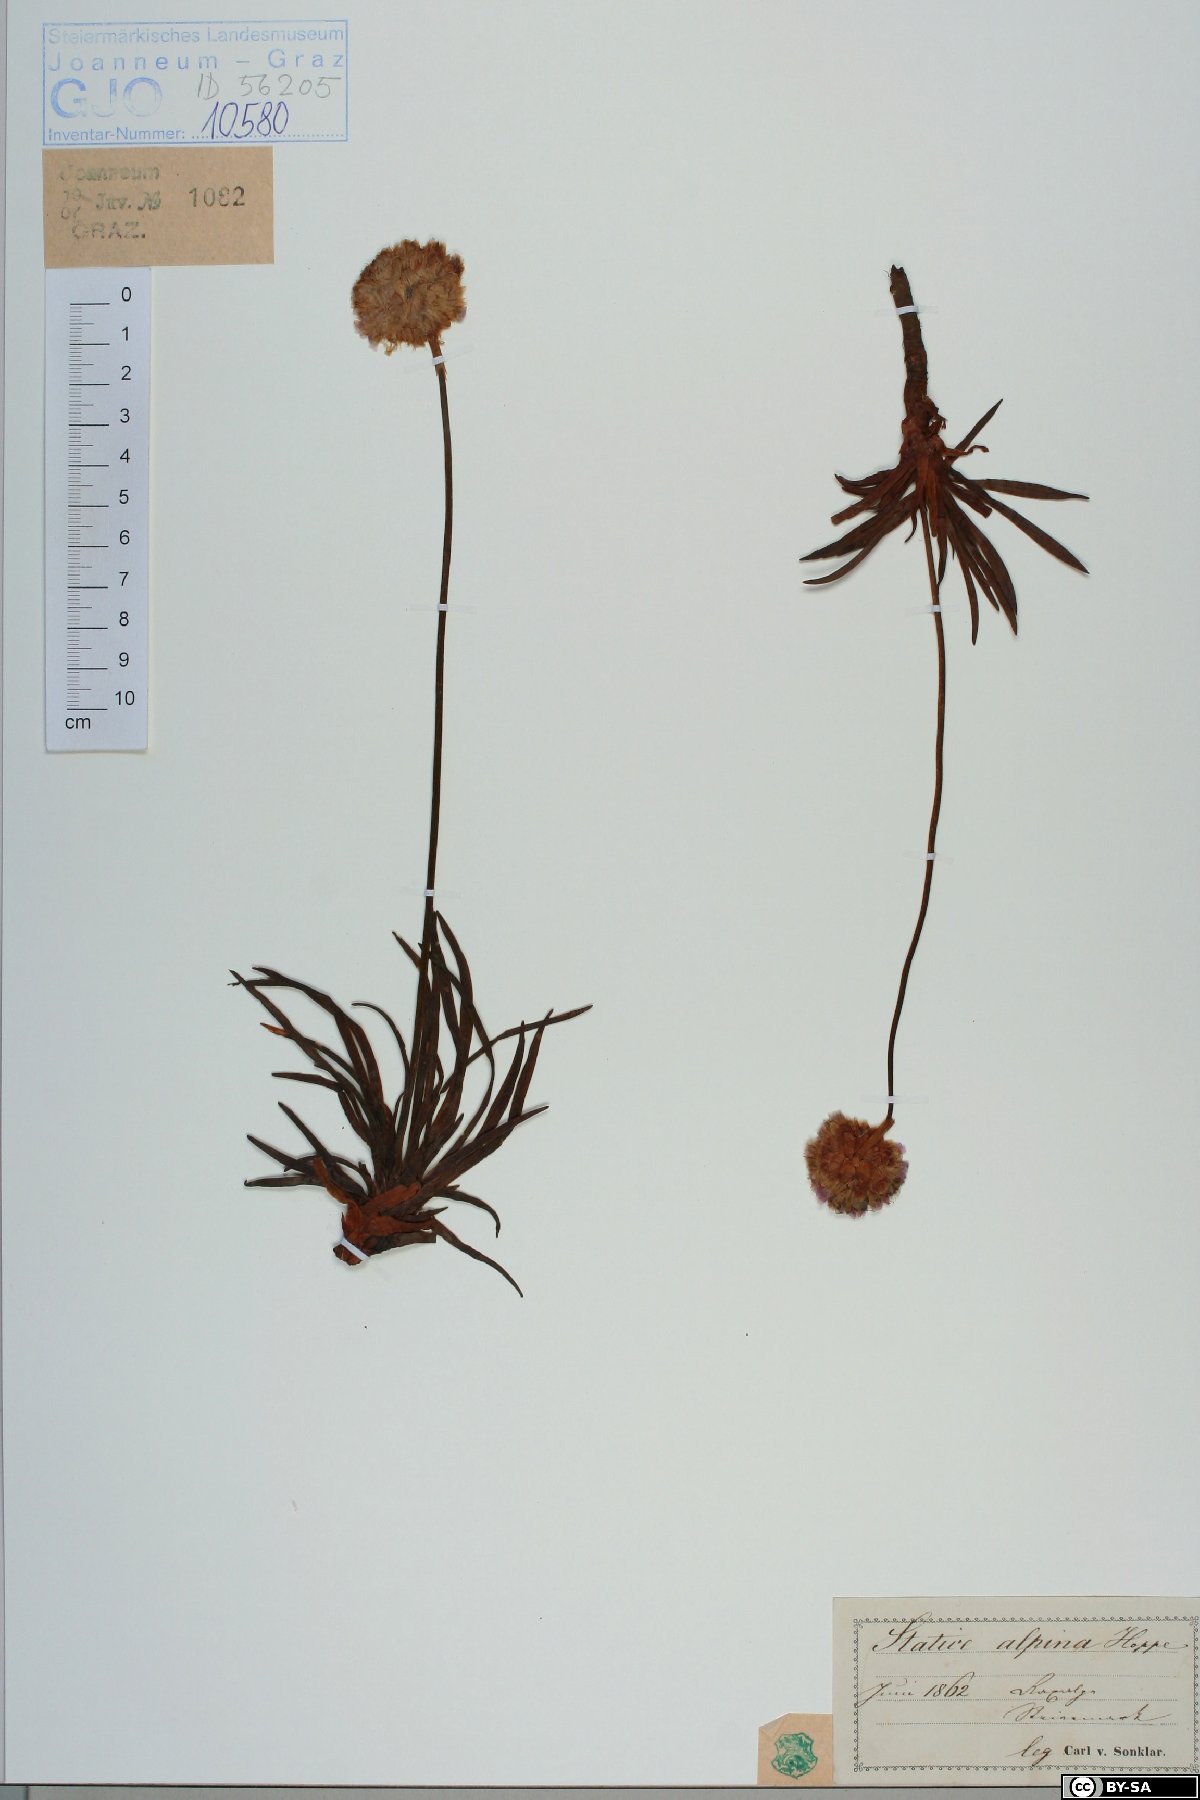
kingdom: Plantae
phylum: Tracheophyta
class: Magnoliopsida
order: Caryophyllales
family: Plumbaginaceae
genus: Armeria
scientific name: Armeria alpina
